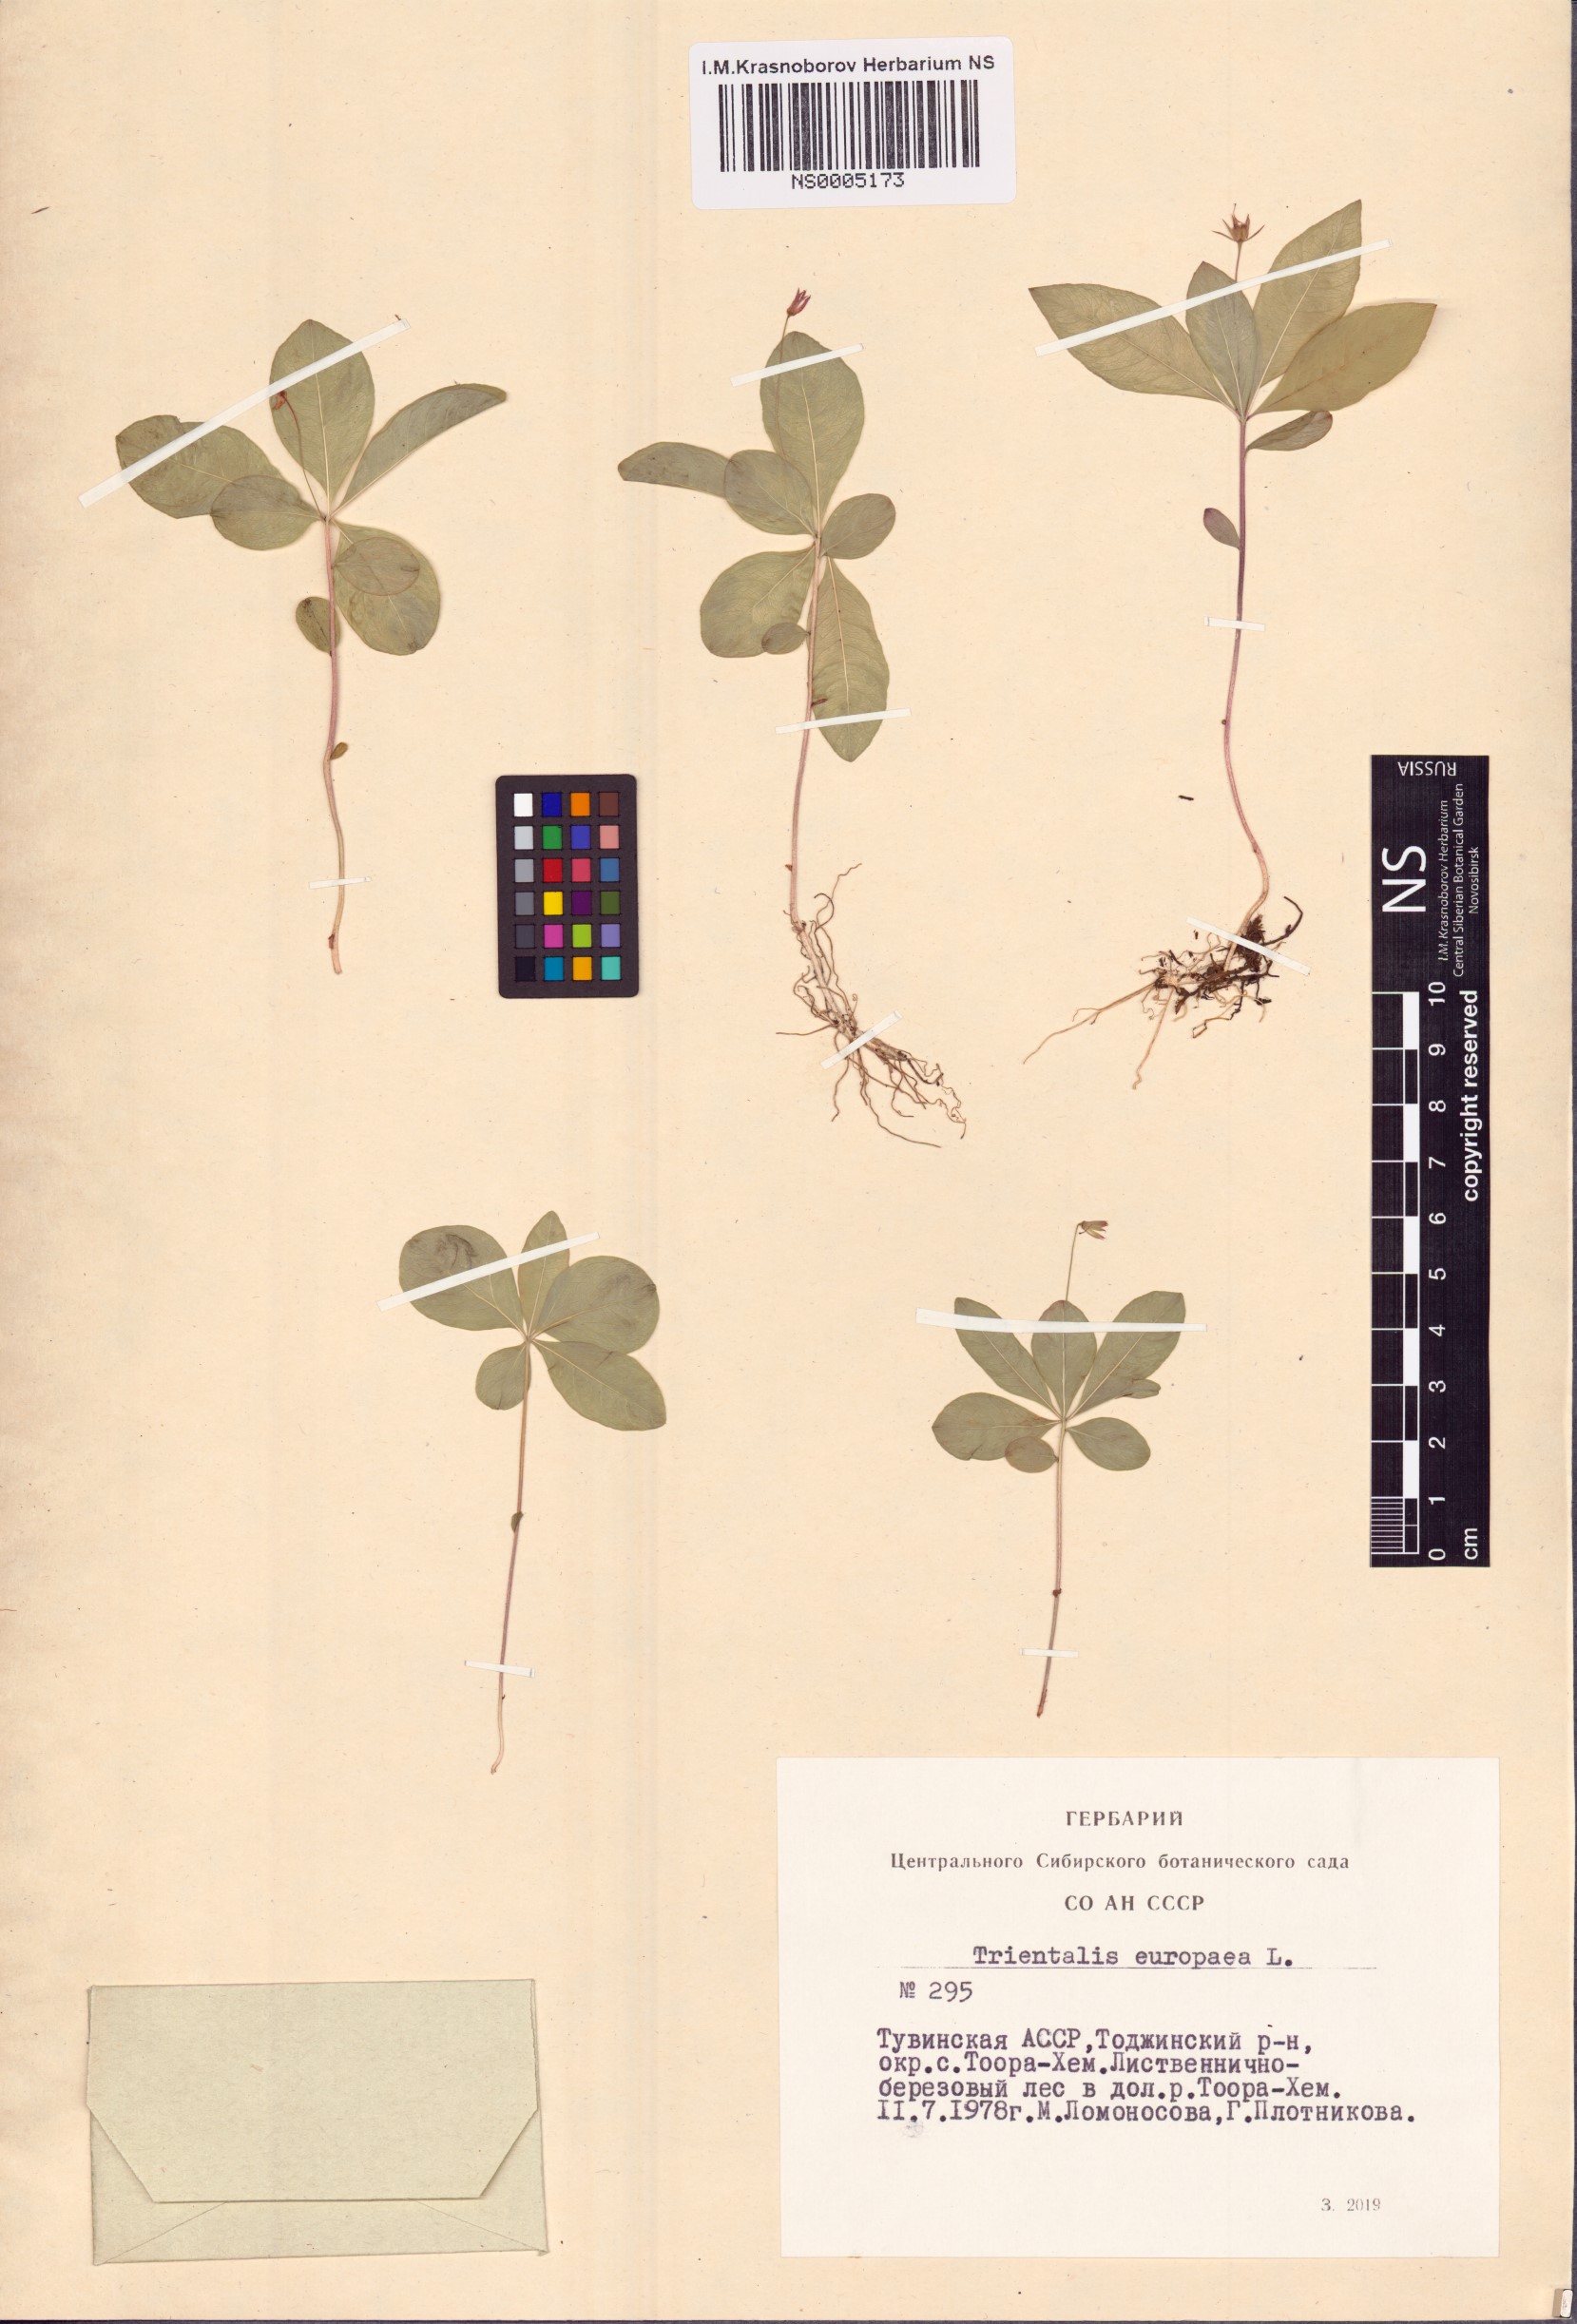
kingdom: Plantae
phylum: Tracheophyta
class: Magnoliopsida
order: Ericales
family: Primulaceae
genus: Lysimachia
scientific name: Lysimachia europaea
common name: Arctic starflower
